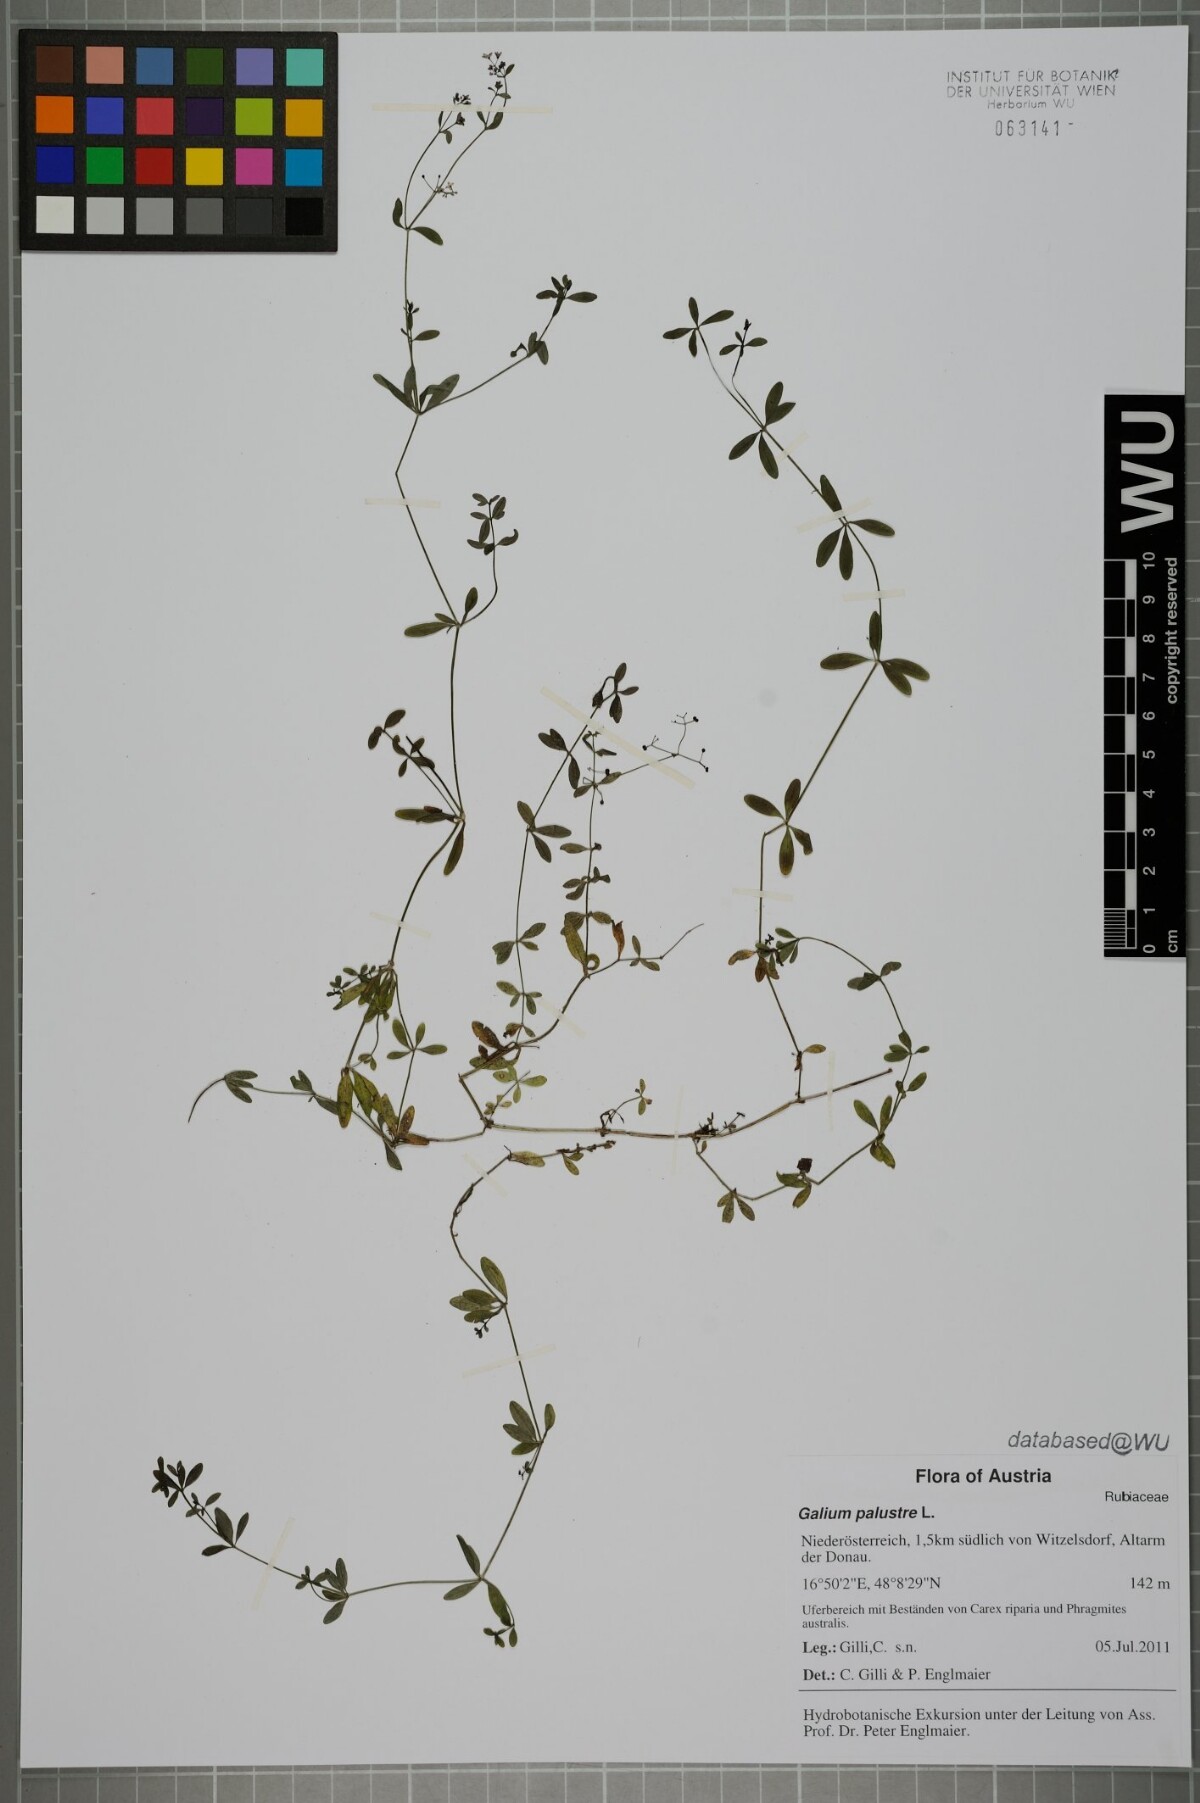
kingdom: Plantae
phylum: Tracheophyta
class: Magnoliopsida
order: Gentianales
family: Rubiaceae
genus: Galium
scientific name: Galium palustre
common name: Common marsh-bedstraw
